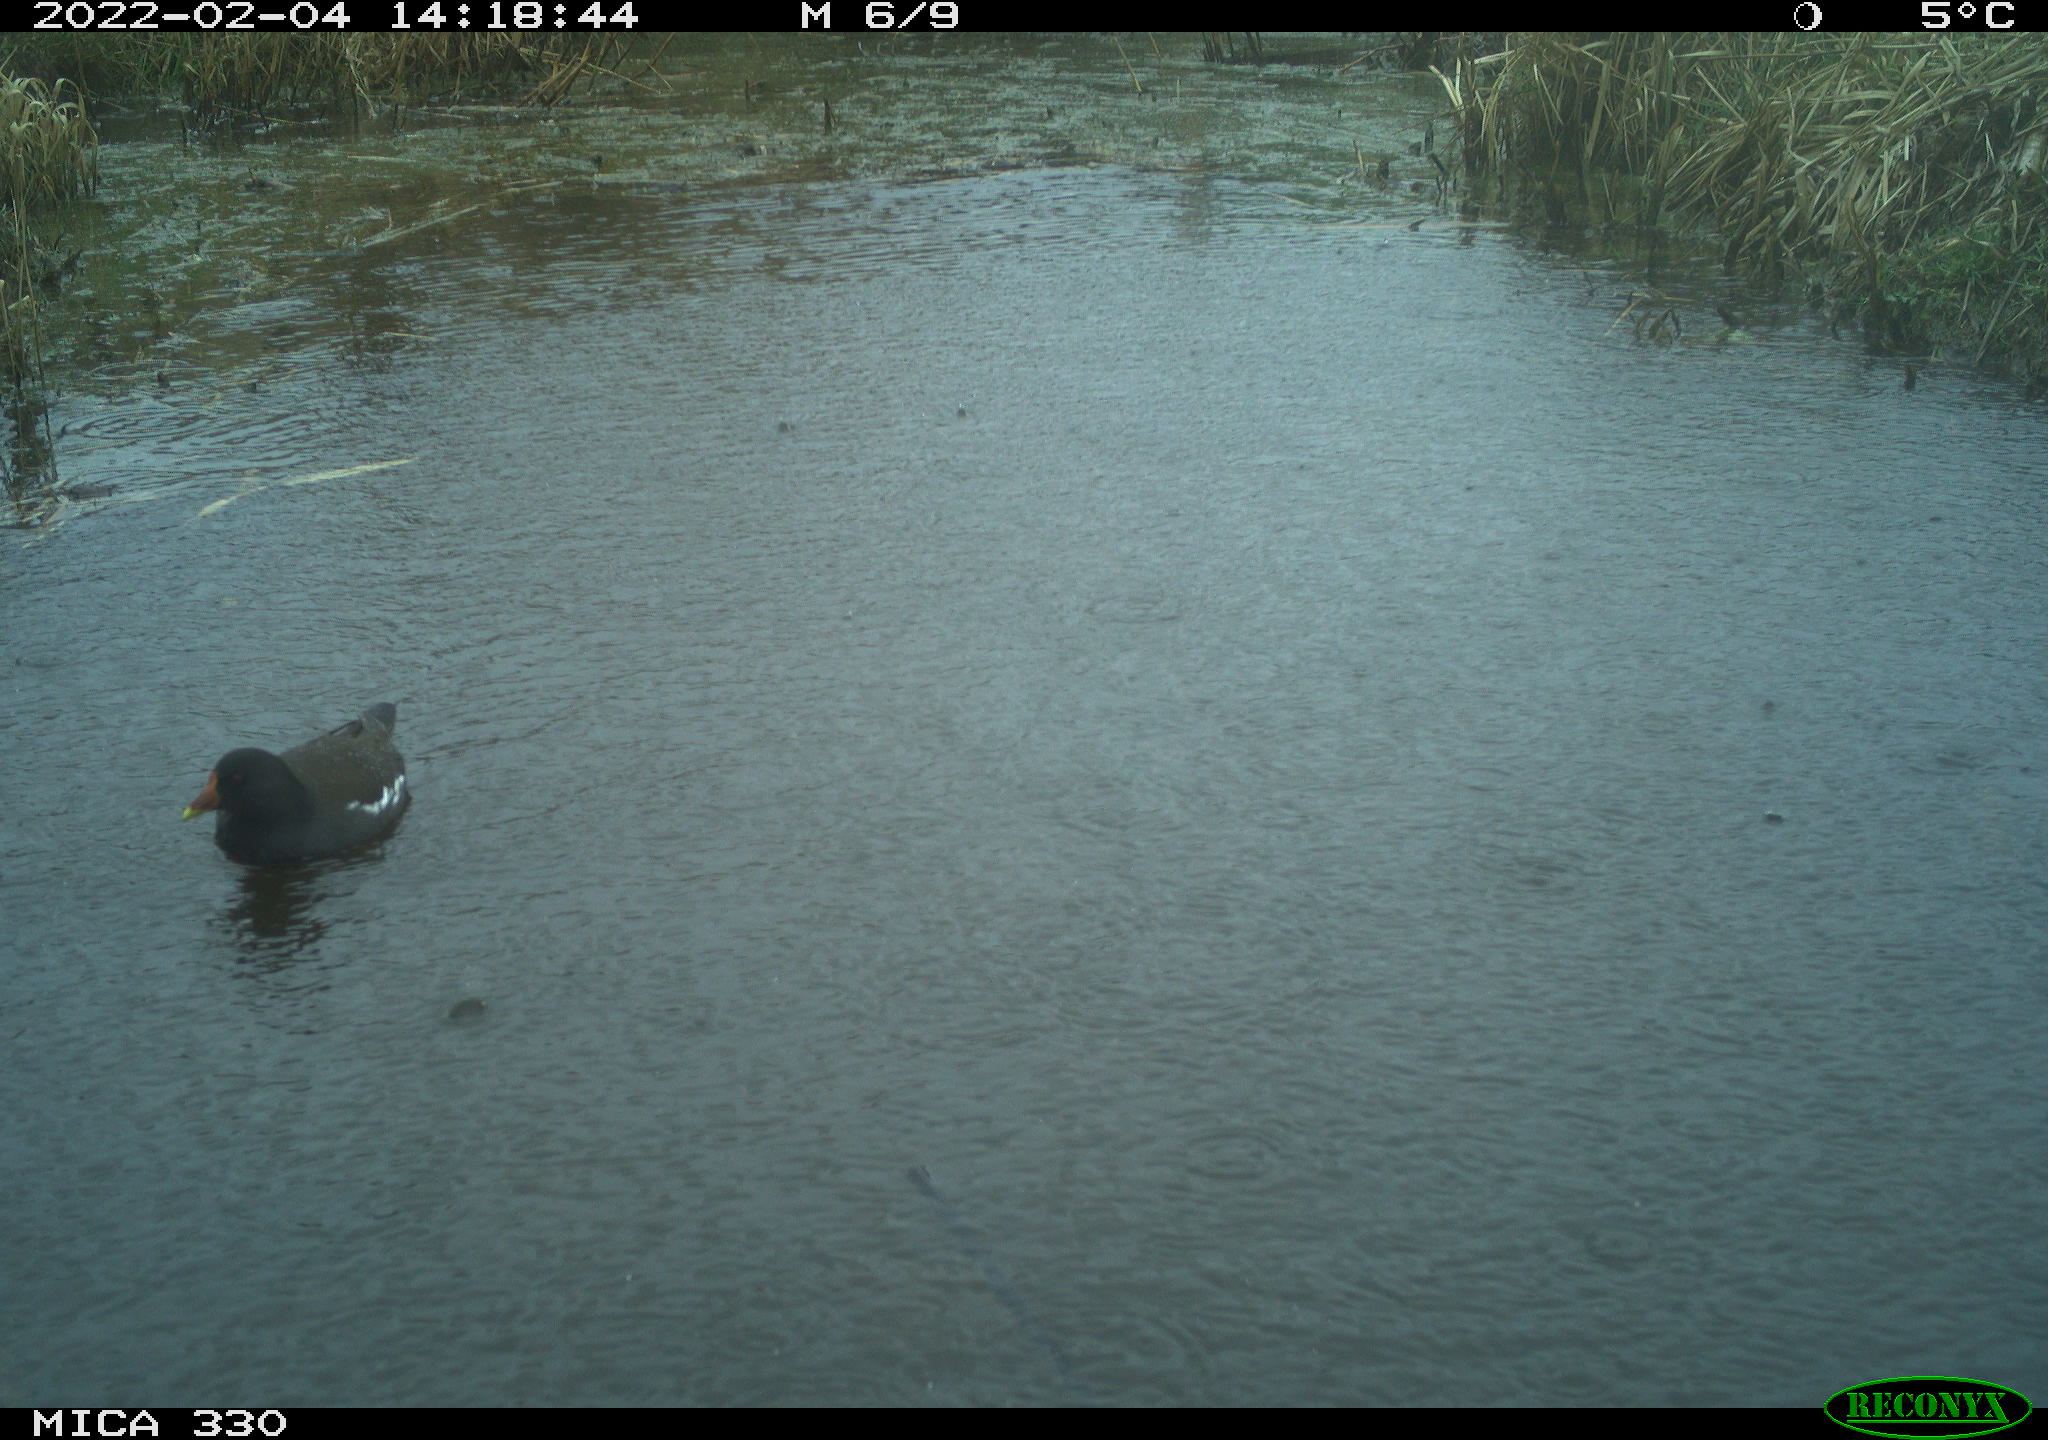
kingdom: Animalia
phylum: Chordata
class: Aves
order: Gruiformes
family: Rallidae
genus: Gallinula
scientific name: Gallinula chloropus
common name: Common moorhen
